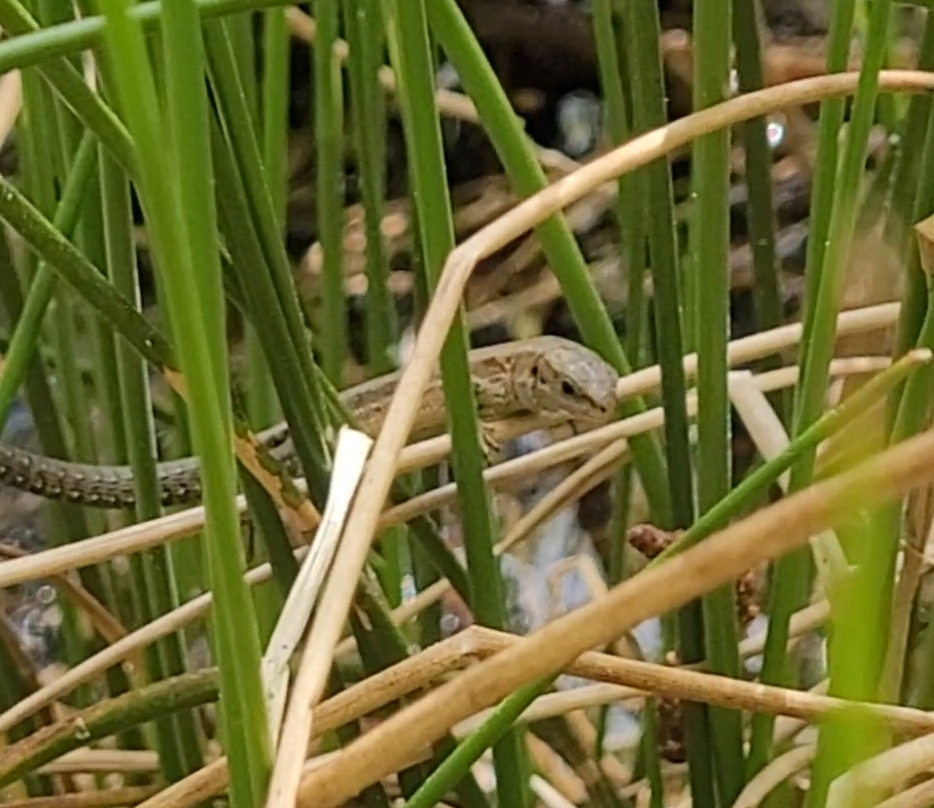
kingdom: Animalia
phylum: Chordata
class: Squamata
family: Lacertidae
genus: Zootoca
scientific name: Zootoca vivipara
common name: Skovfirben
